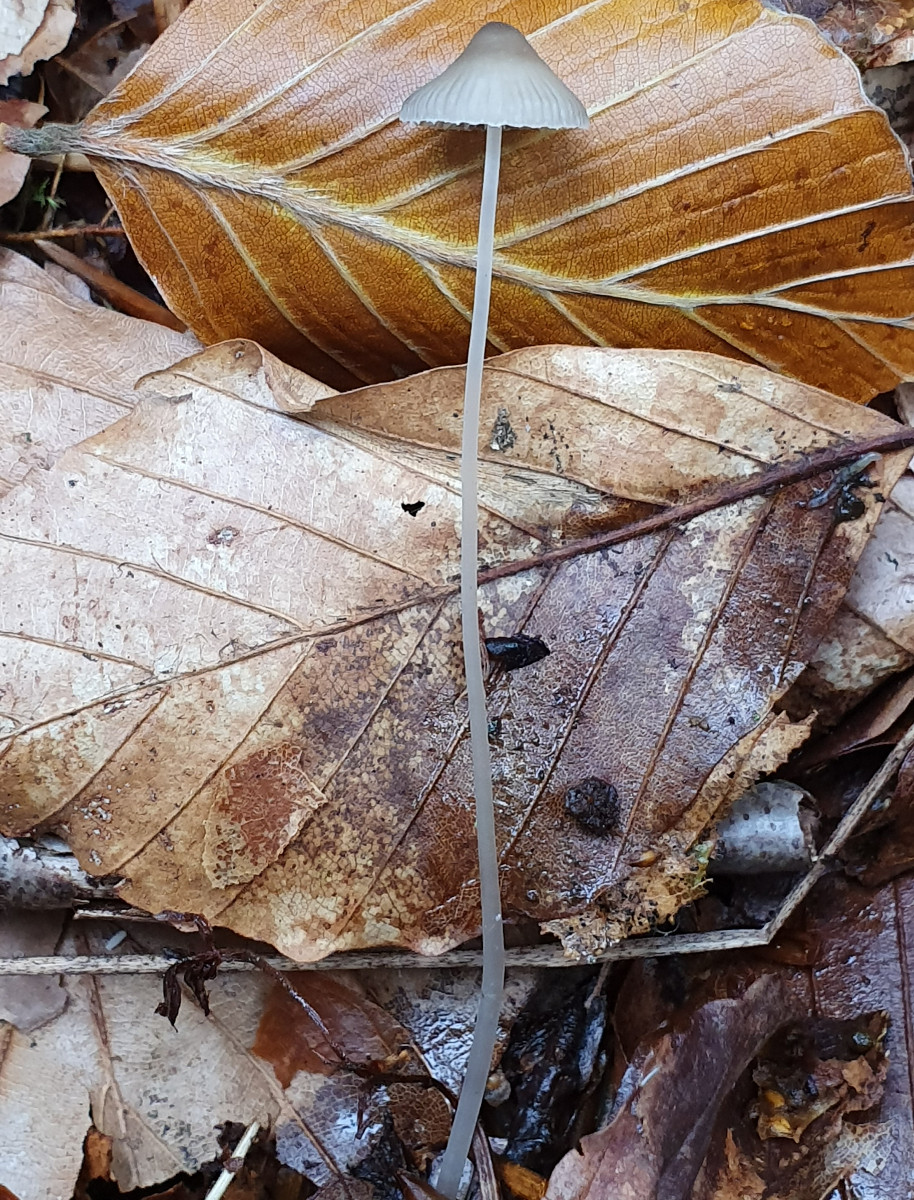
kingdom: Fungi
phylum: Basidiomycota
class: Agaricomycetes
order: Agaricales
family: Mycenaceae
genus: Mycena
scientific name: Mycena vitilis
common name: blankstokket huesvamp
